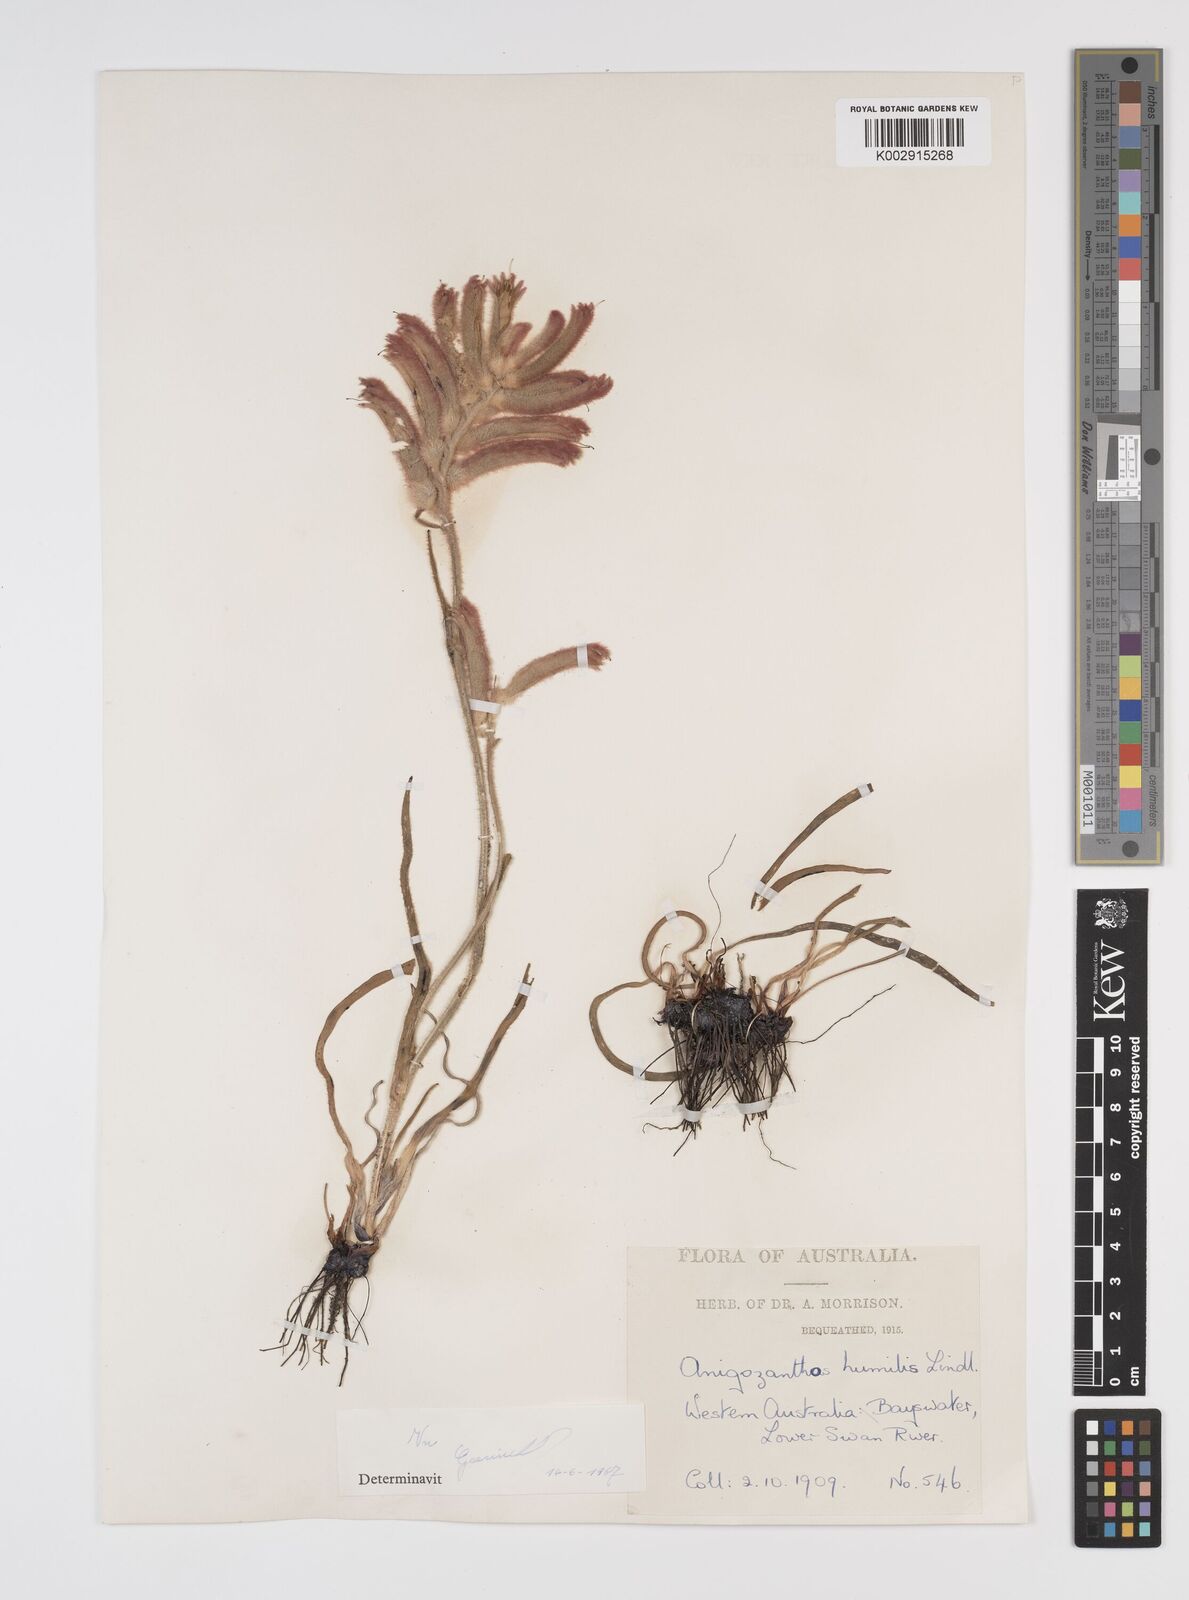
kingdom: Plantae
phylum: Tracheophyta
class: Liliopsida
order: Commelinales
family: Haemodoraceae
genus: Anigozanthos
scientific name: Anigozanthos humilis
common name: Cat's-paw
